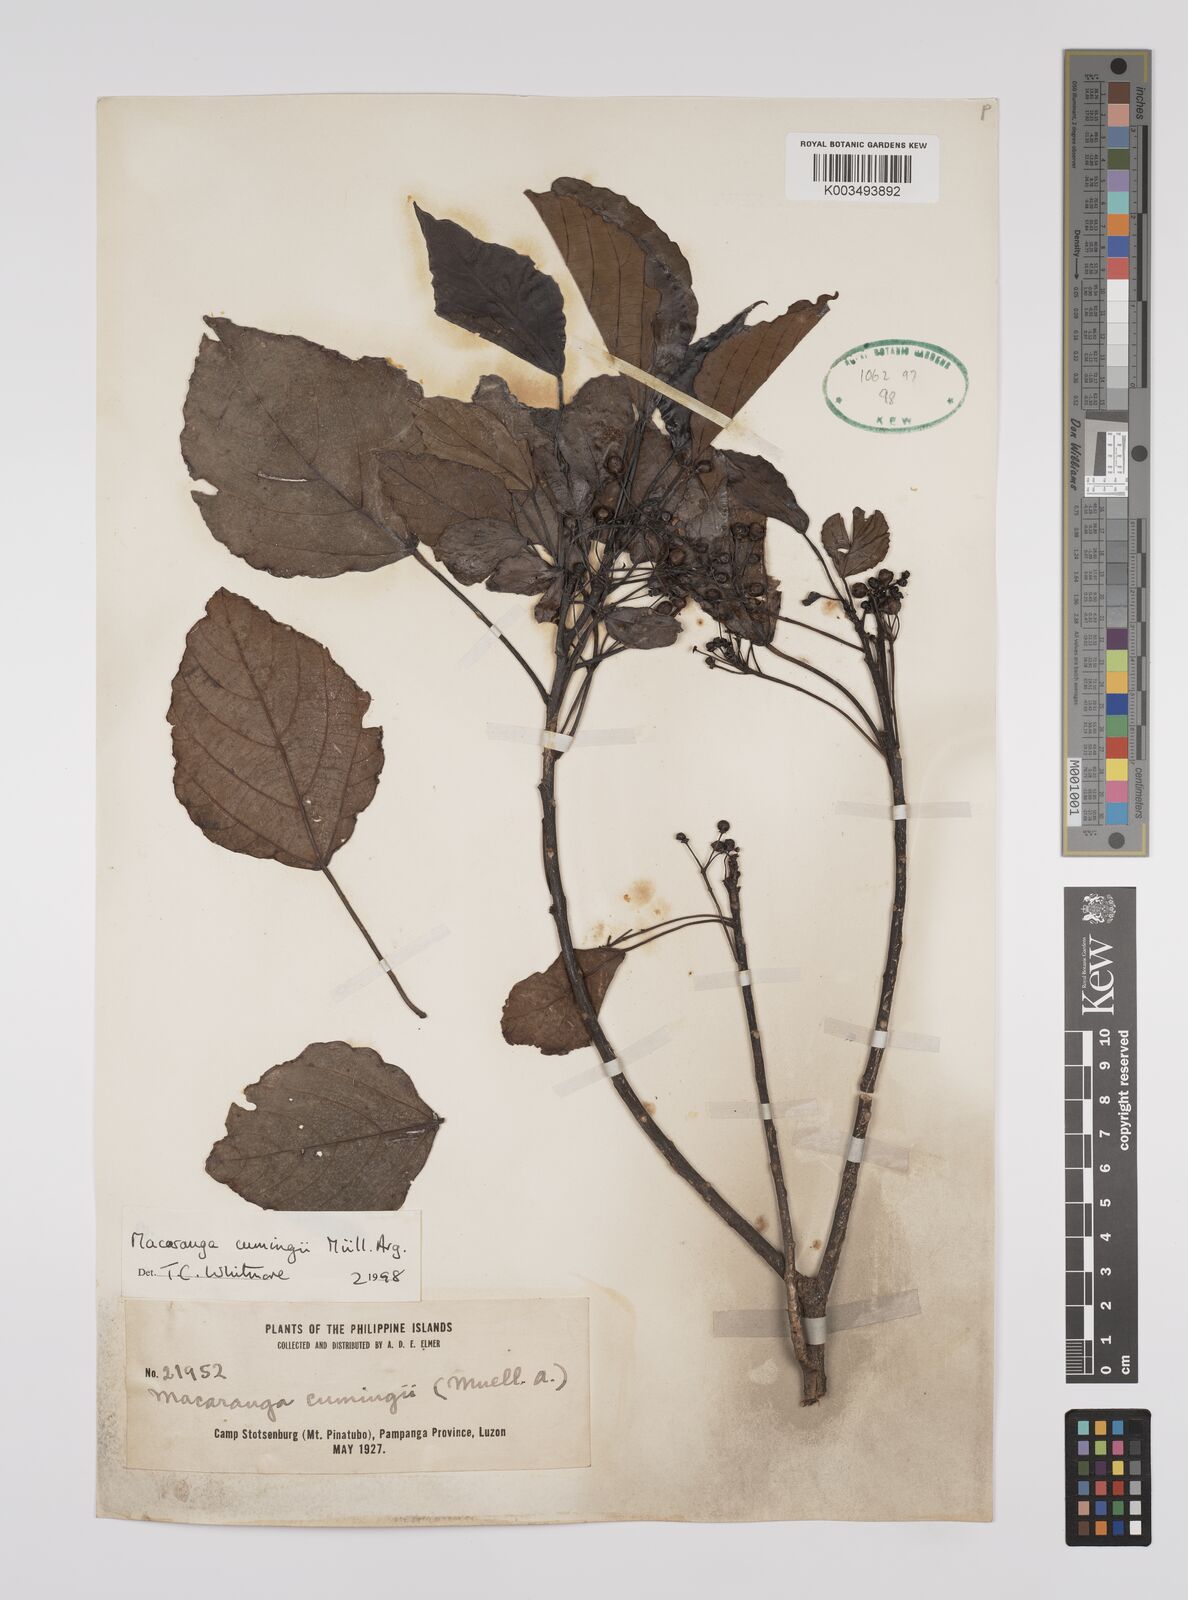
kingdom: Plantae
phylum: Tracheophyta
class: Magnoliopsida
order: Malpighiales
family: Euphorbiaceae
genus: Macaranga
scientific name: Macaranga cumingii
